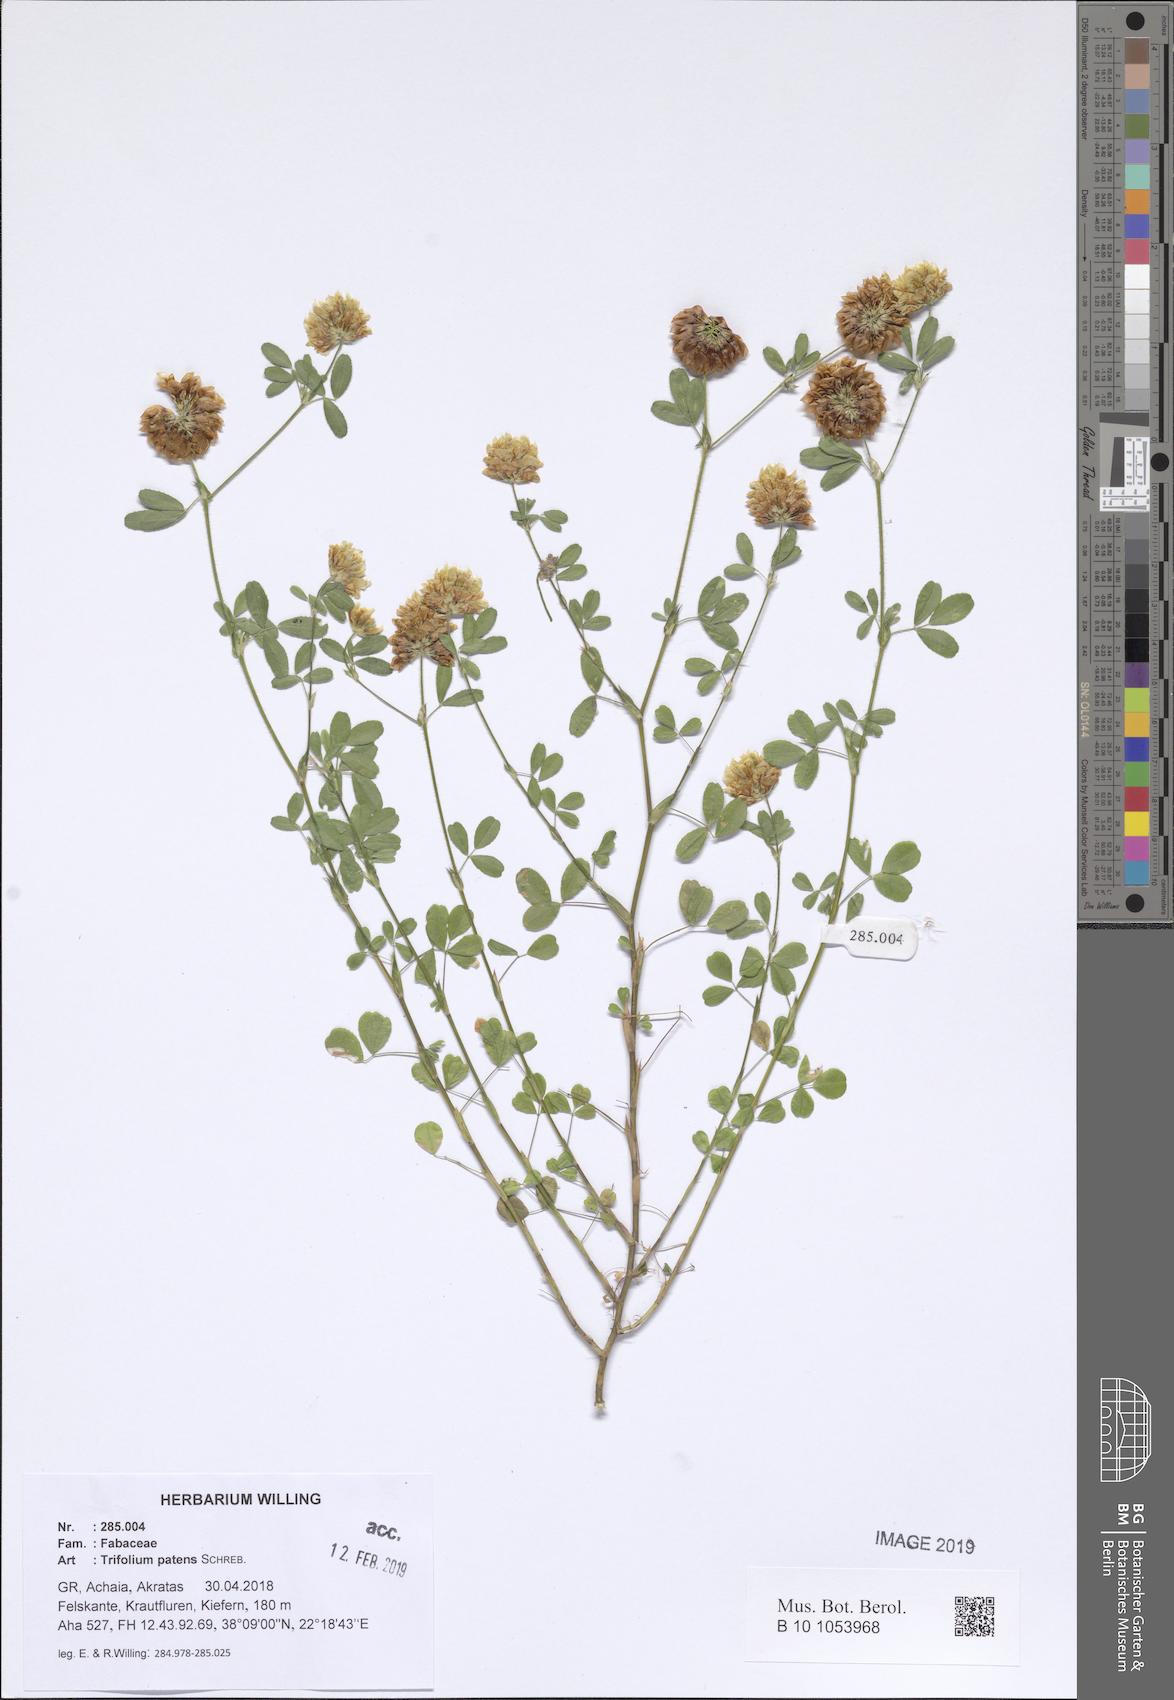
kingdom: Plantae
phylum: Tracheophyta
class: Magnoliopsida
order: Fabales
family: Fabaceae
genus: Trifolium
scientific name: Trifolium patens
